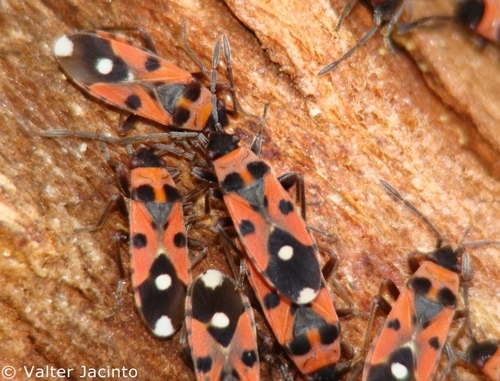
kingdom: Animalia
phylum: Arthropoda
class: Insecta
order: Hemiptera
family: Lygaeidae
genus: Horvathiolus
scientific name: Horvathiolus syriacus
